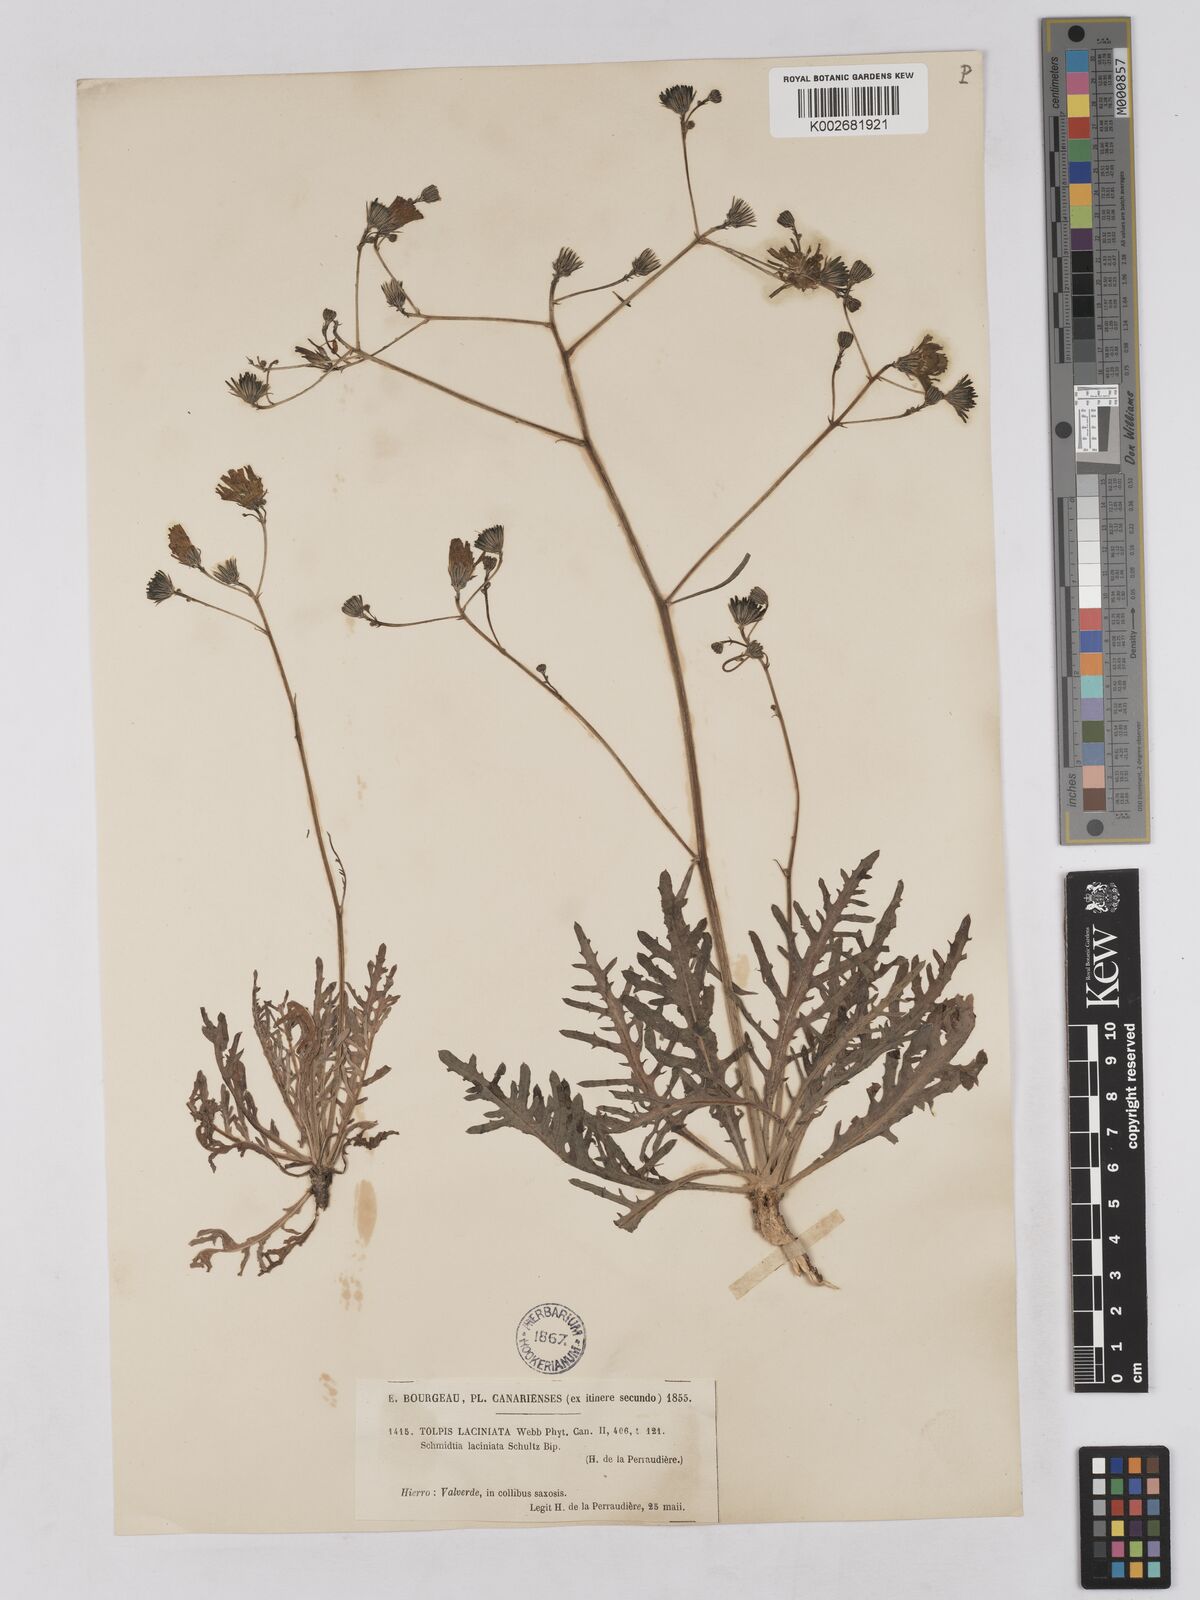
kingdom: Plantae
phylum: Tracheophyta
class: Magnoliopsida
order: Asterales
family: Asteraceae
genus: Tolpis
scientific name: Tolpis laciniata
